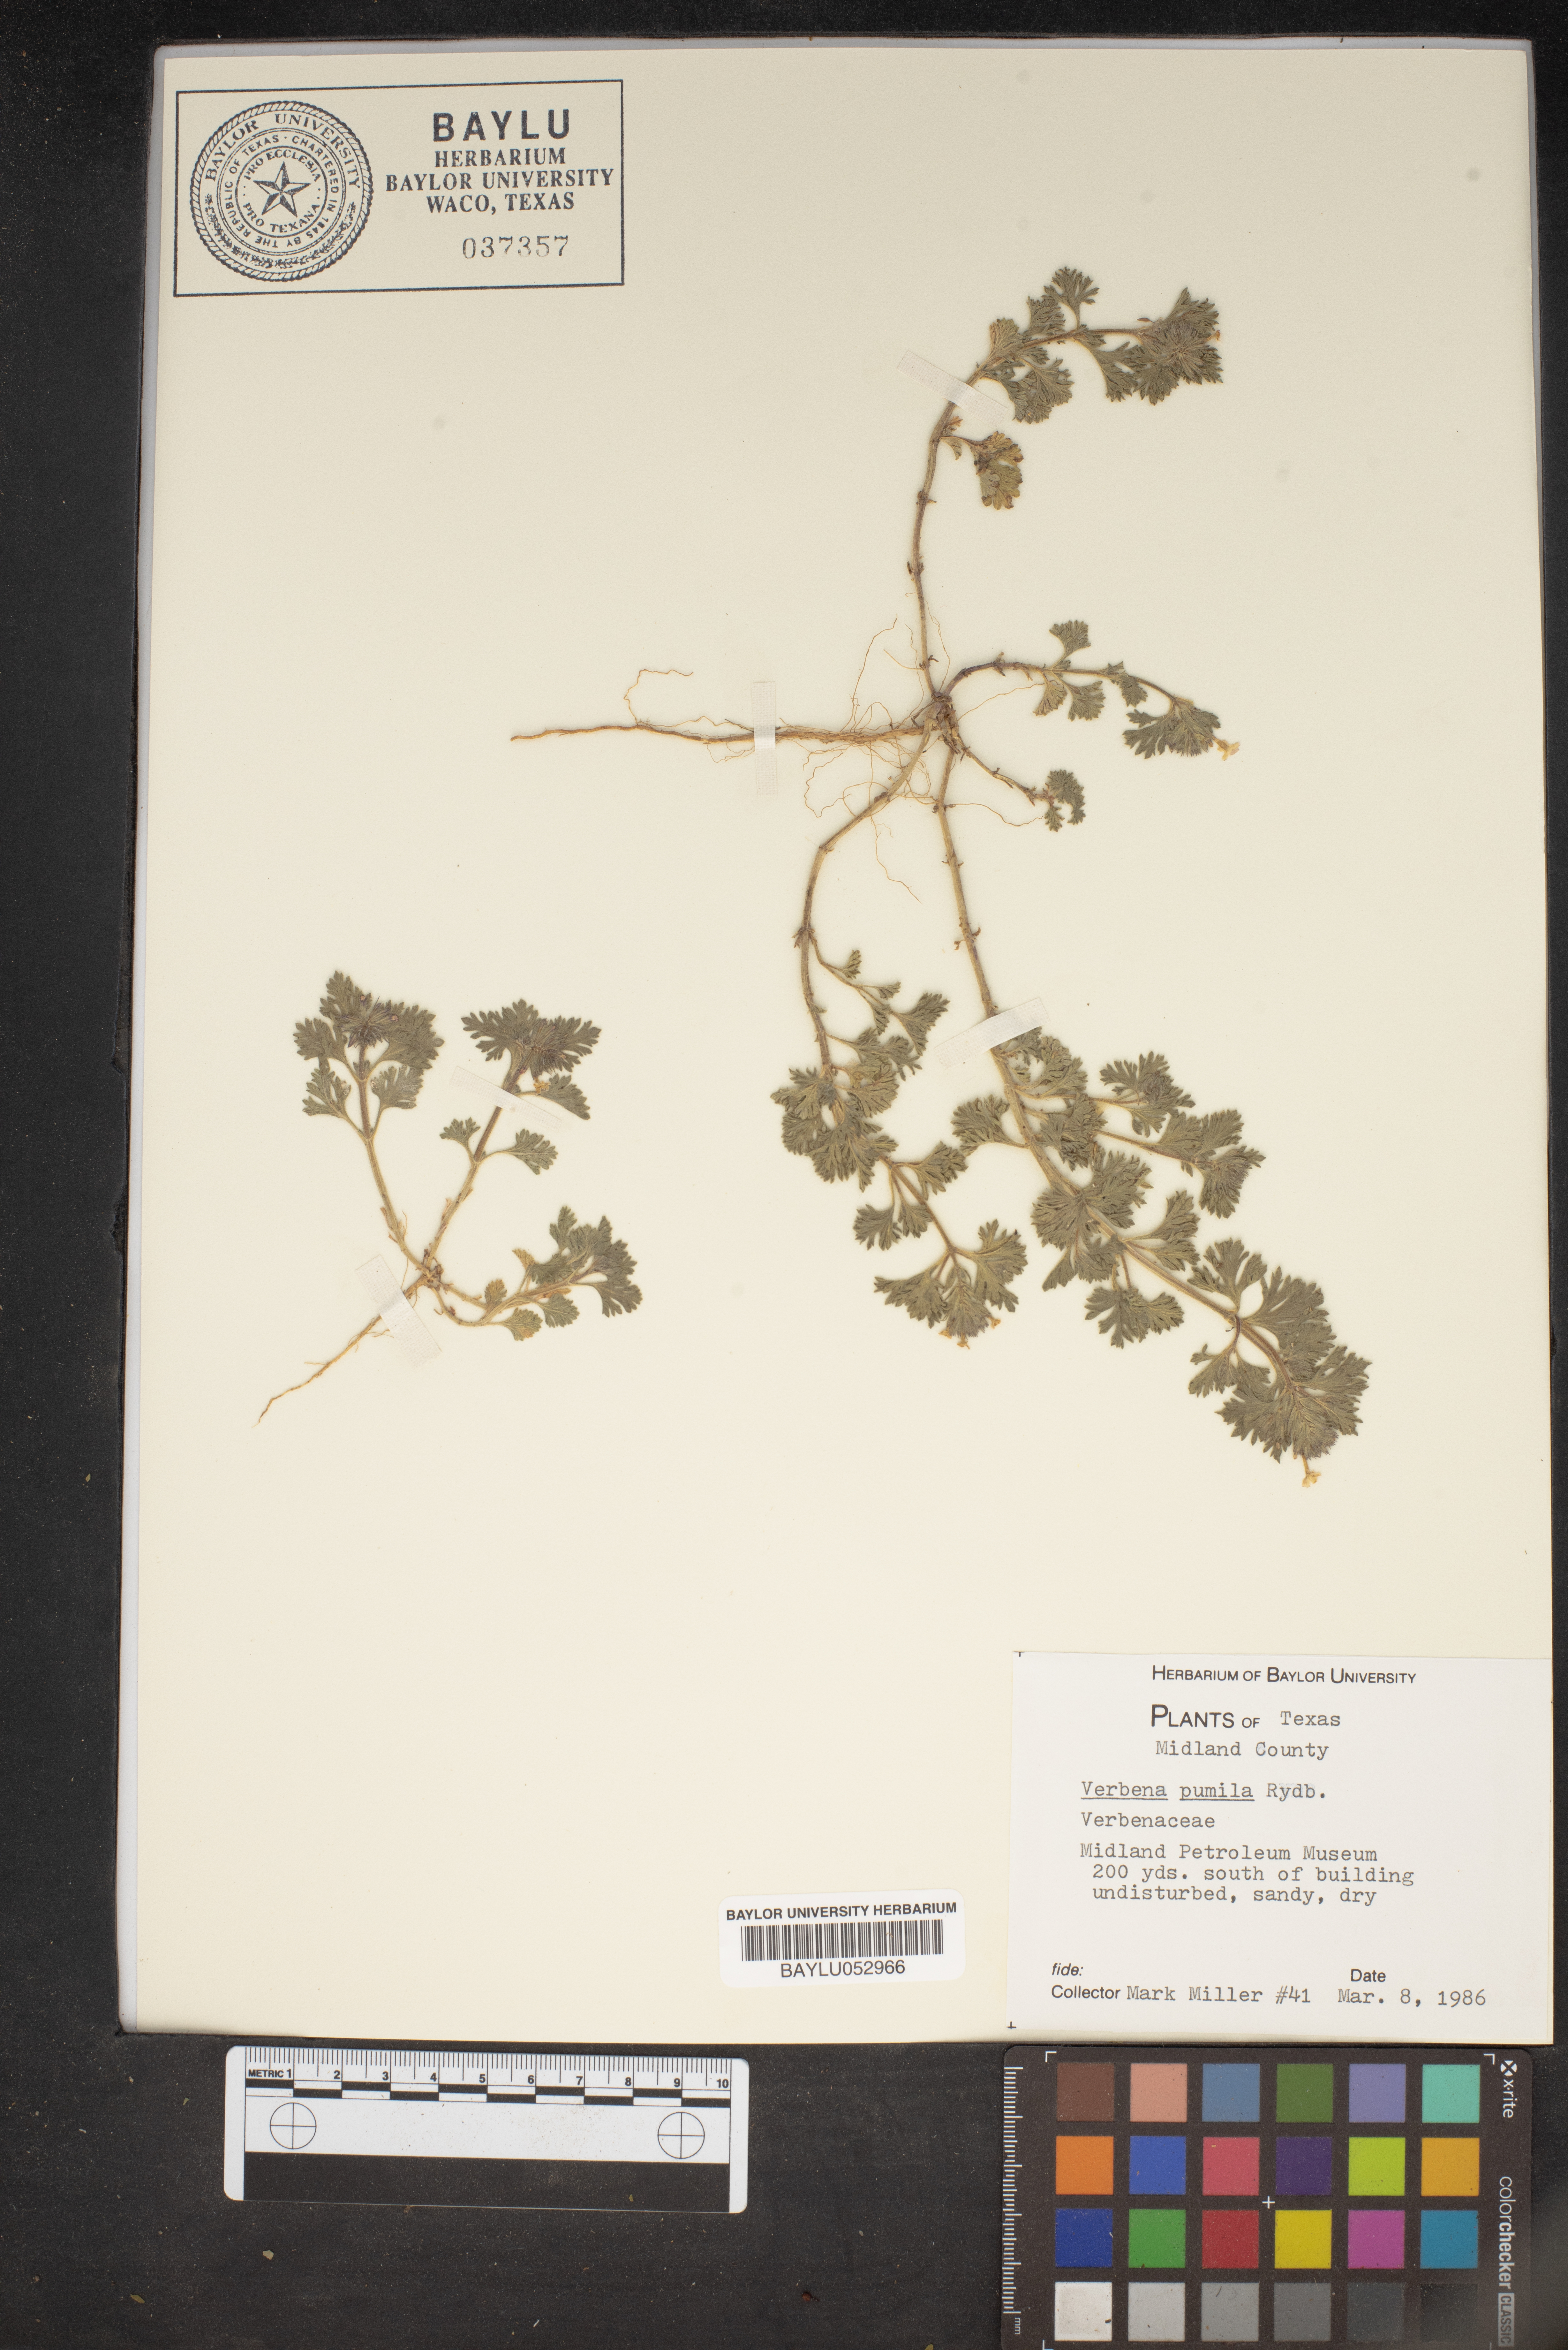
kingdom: Plantae
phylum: Tracheophyta
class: Magnoliopsida
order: Lamiales
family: Verbenaceae
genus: Verbena
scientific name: Verbena pumila
